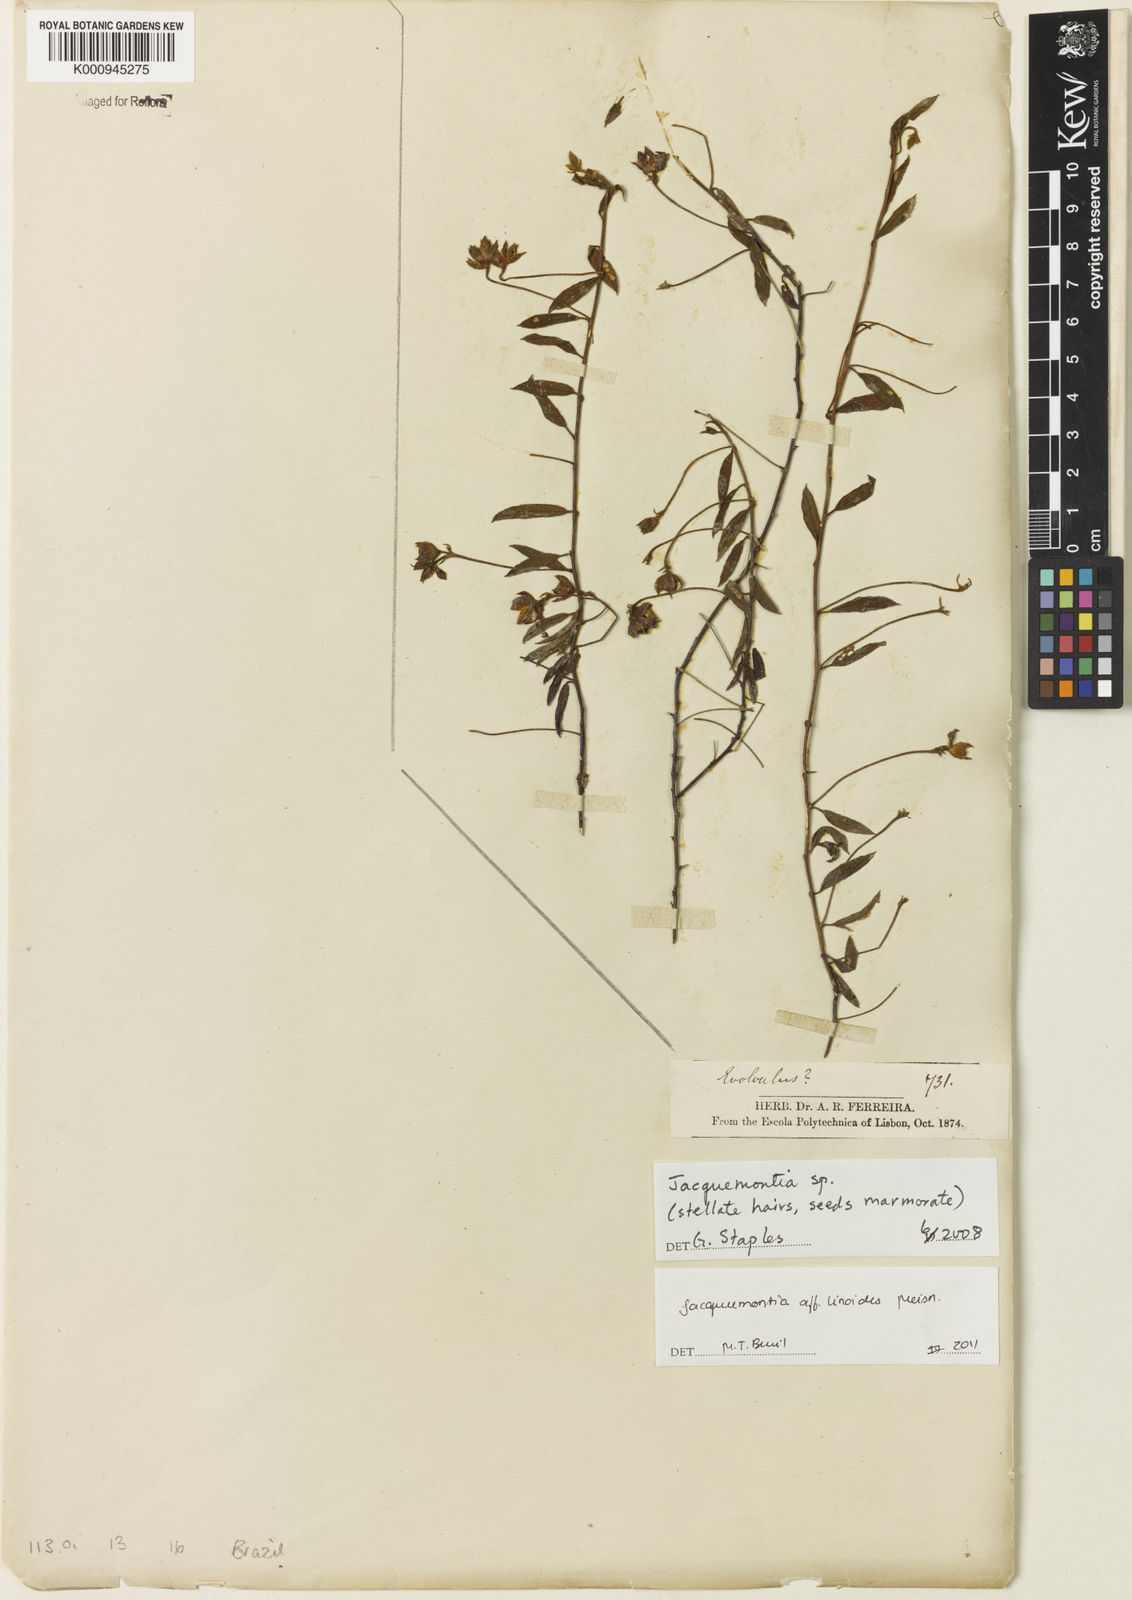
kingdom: Plantae
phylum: Tracheophyta
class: Magnoliopsida
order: Solanales
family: Convolvulaceae
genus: Jacquemontia
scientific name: Jacquemontia linoides
